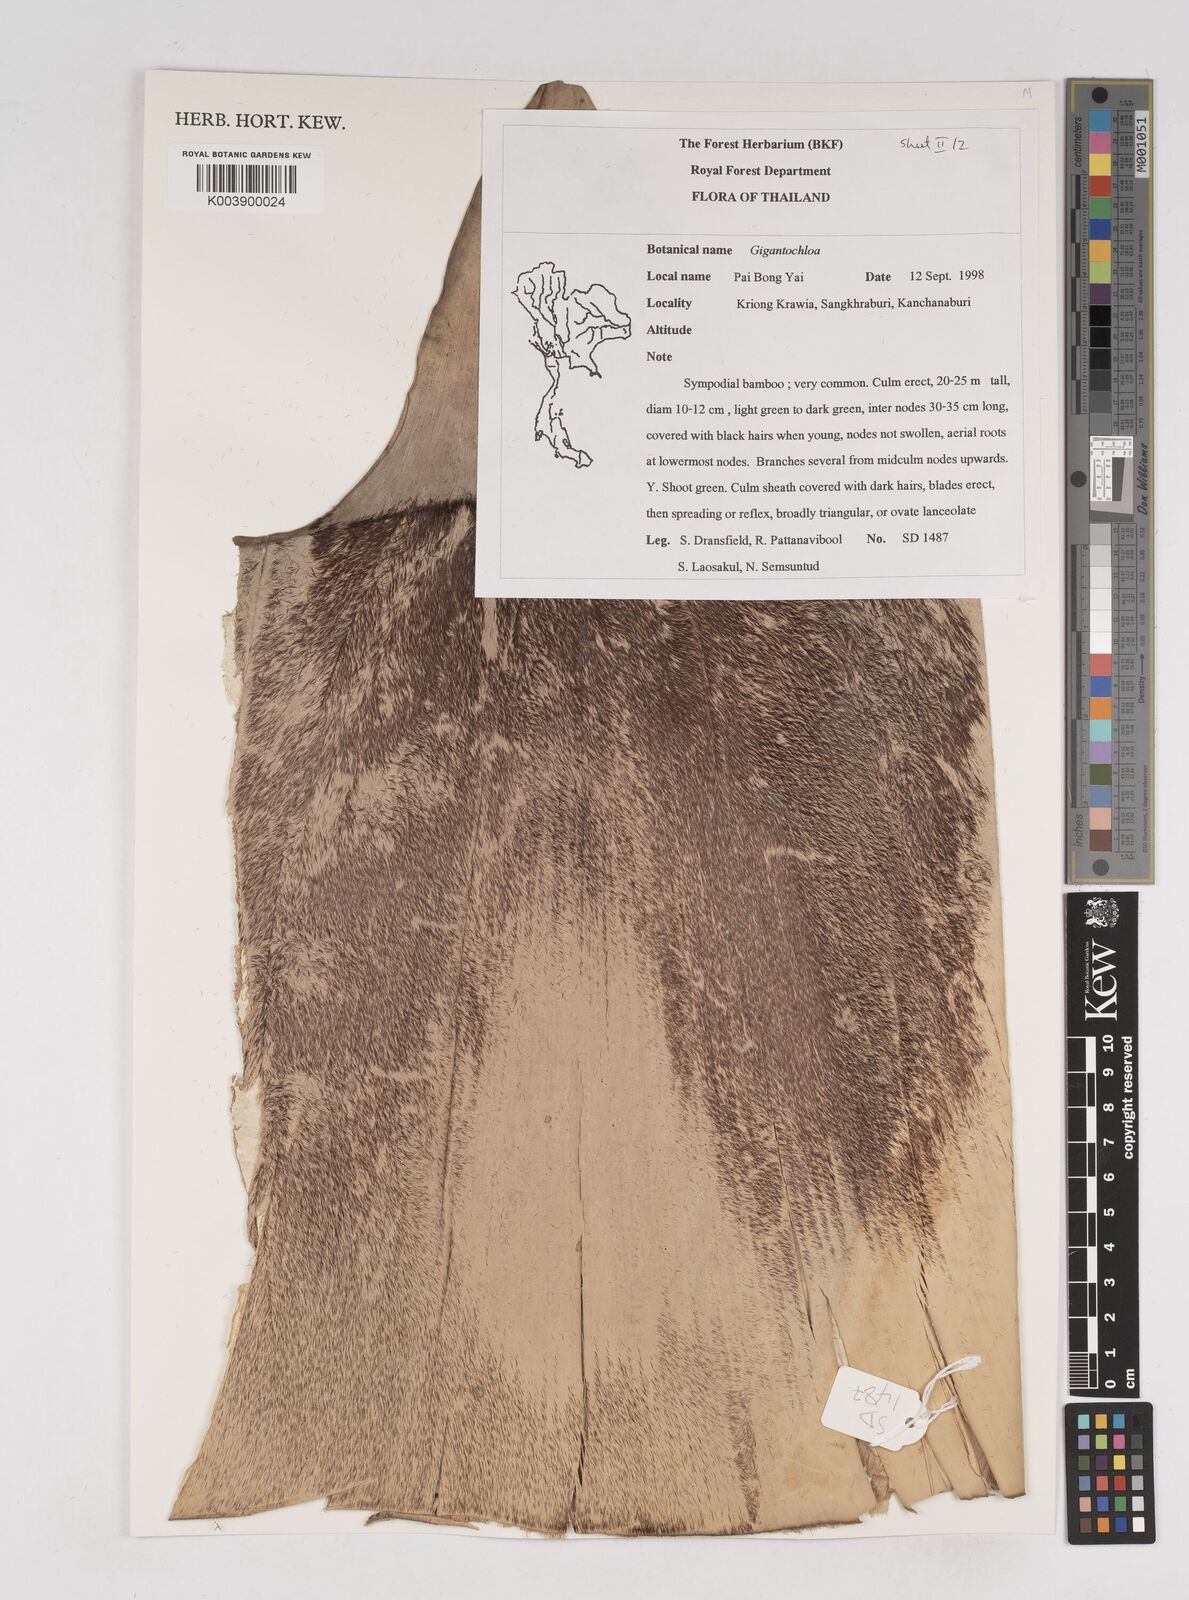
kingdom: Plantae
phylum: Tracheophyta
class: Liliopsida
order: Poales
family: Poaceae
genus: Gigantochloa
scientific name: Gigantochloa
